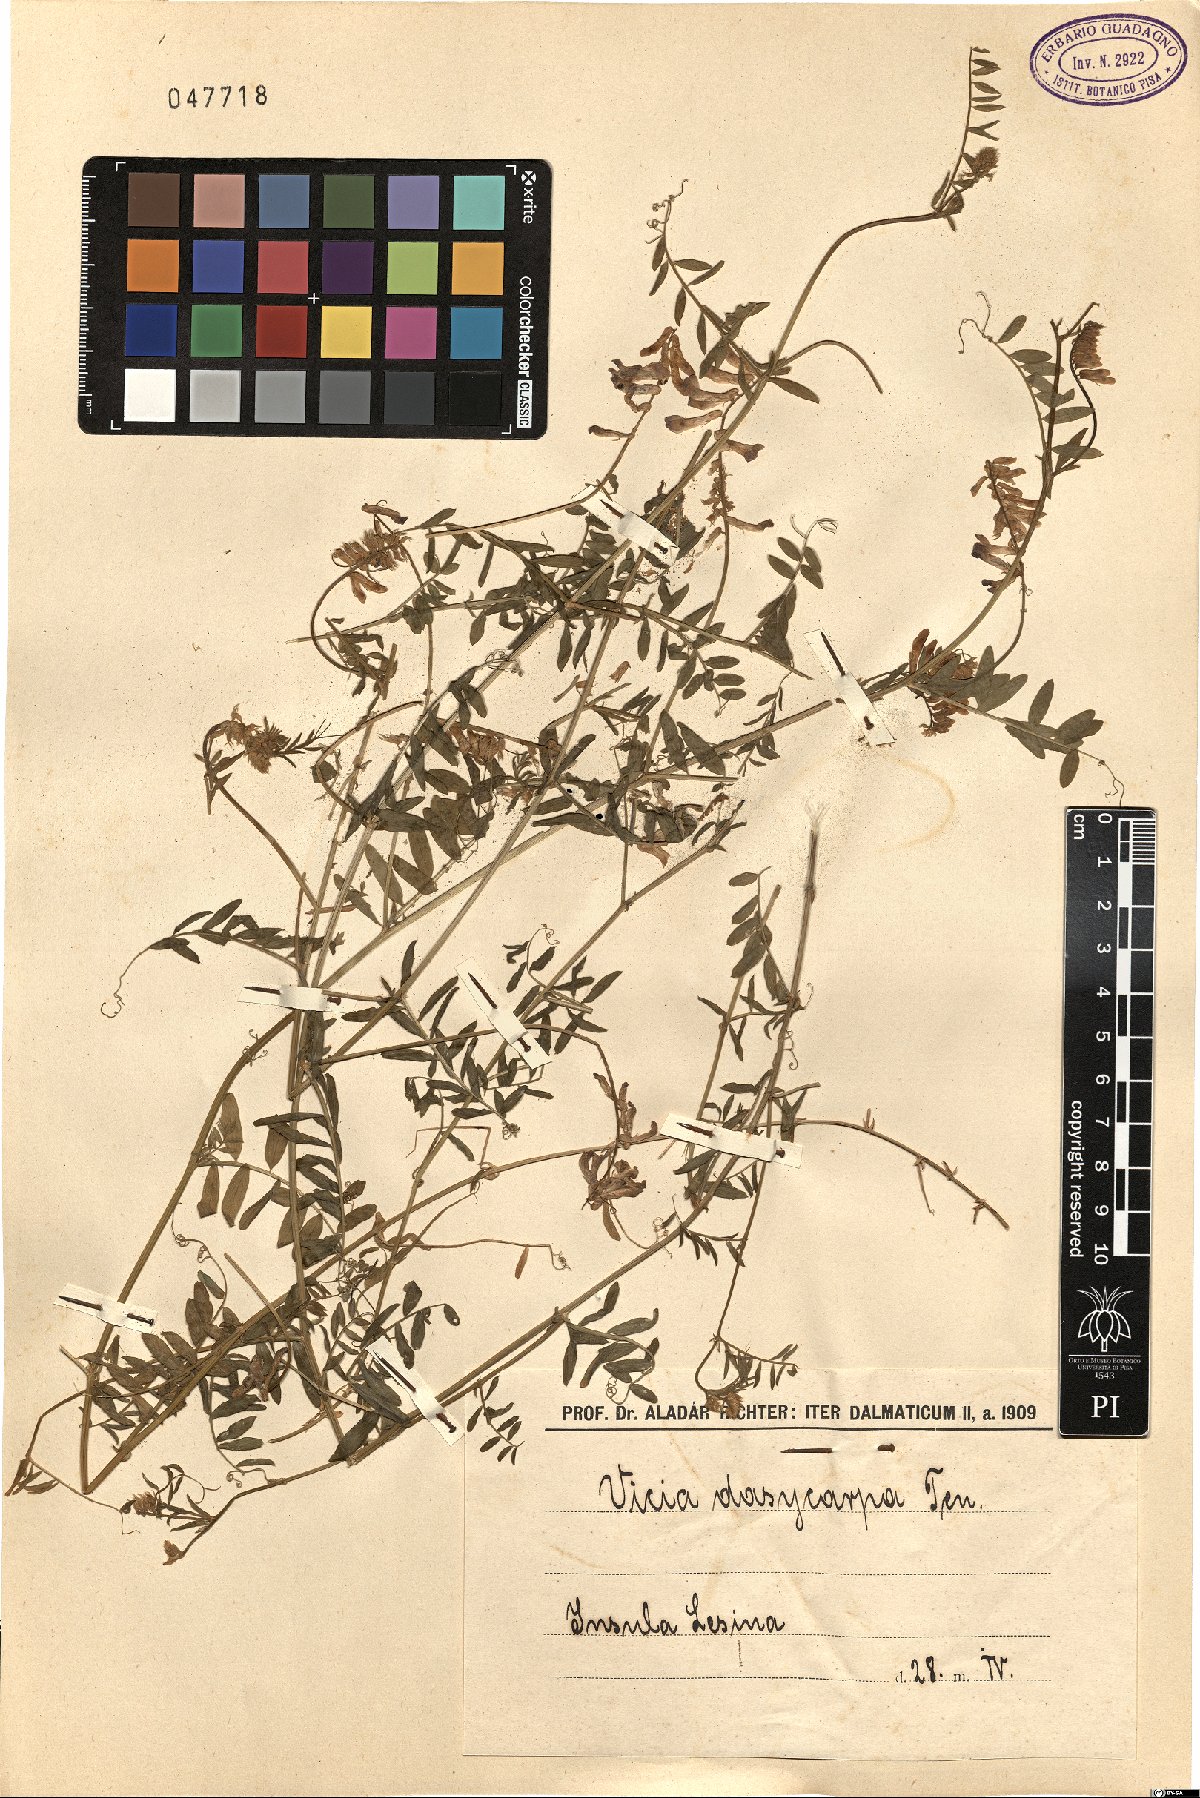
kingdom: Plantae
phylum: Tracheophyta
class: Magnoliopsida
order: Fabales
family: Fabaceae
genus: Vicia
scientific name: Vicia villosa
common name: Fodder vetch
